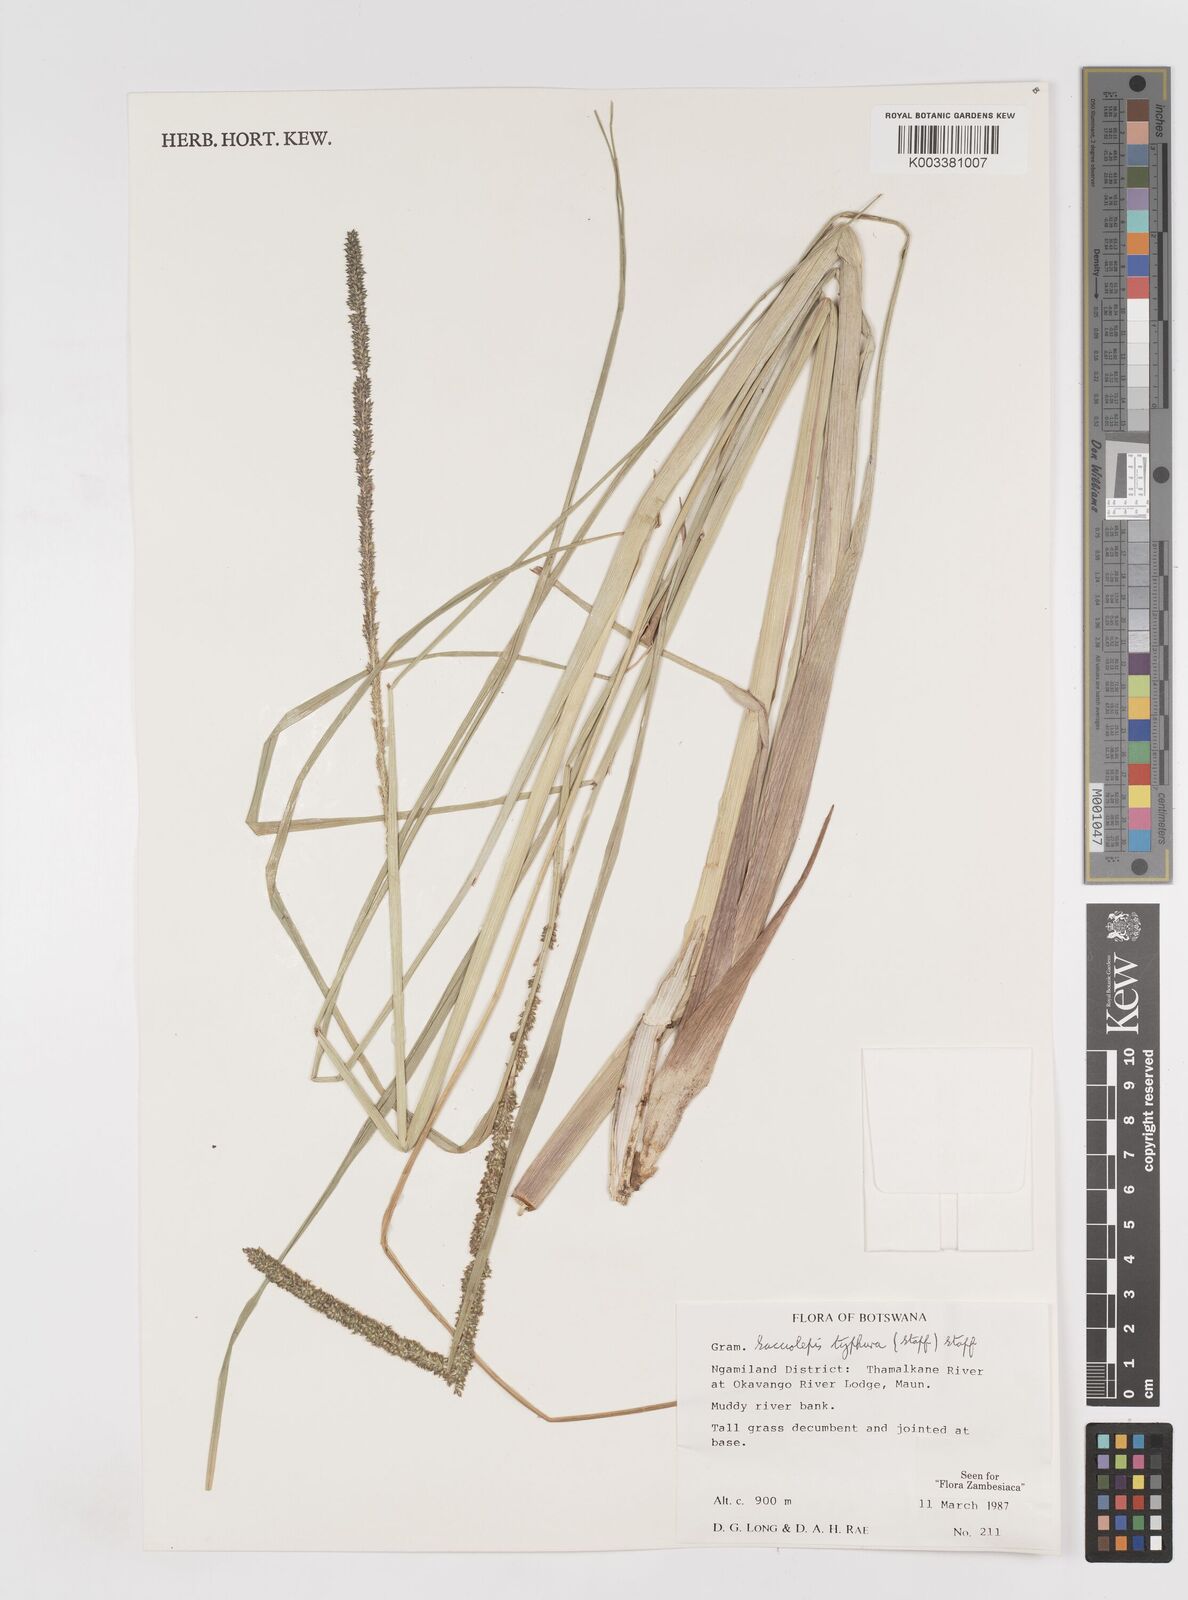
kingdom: Plantae
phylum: Tracheophyta
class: Liliopsida
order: Poales
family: Poaceae
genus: Sacciolepis
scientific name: Sacciolepis typhura
